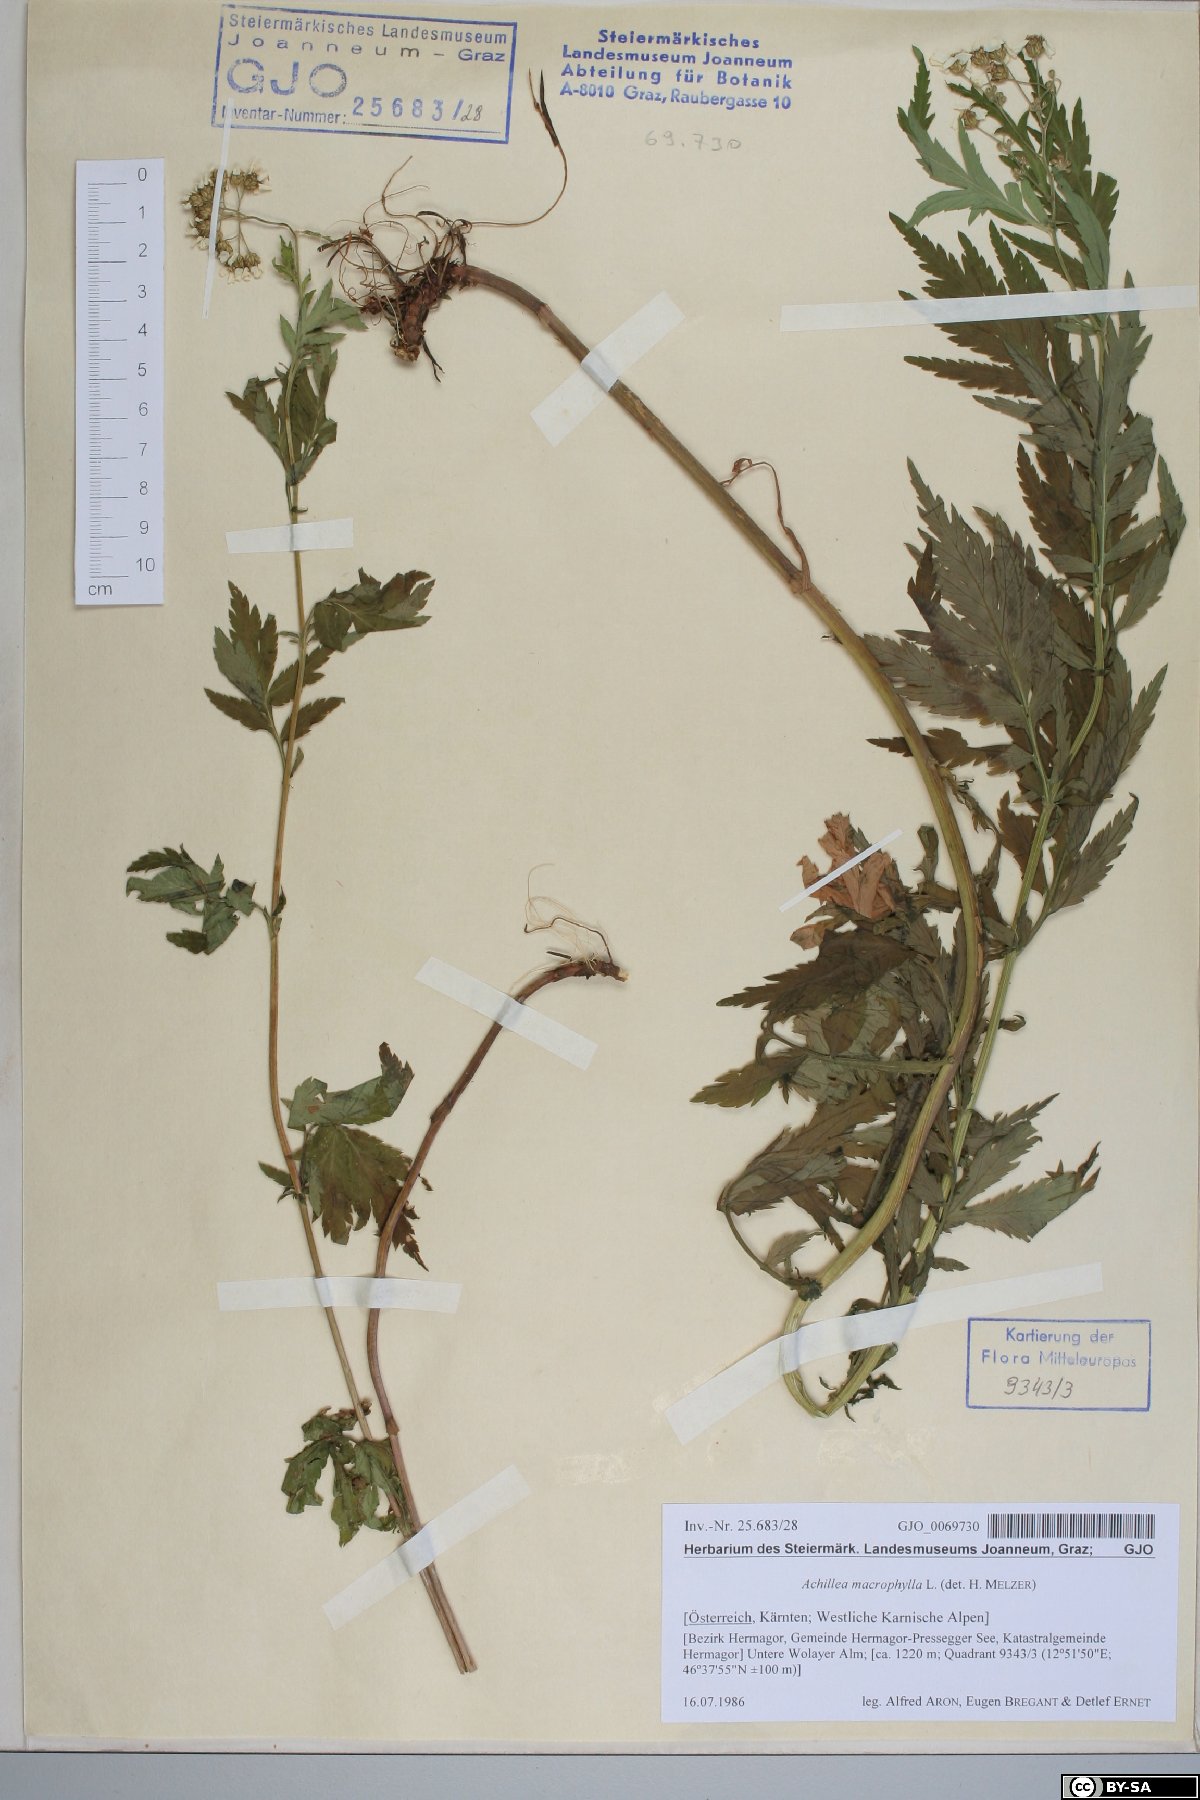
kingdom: Plantae
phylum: Tracheophyta
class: Magnoliopsida
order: Asterales
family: Asteraceae
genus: Achillea
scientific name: Achillea macrophylla
